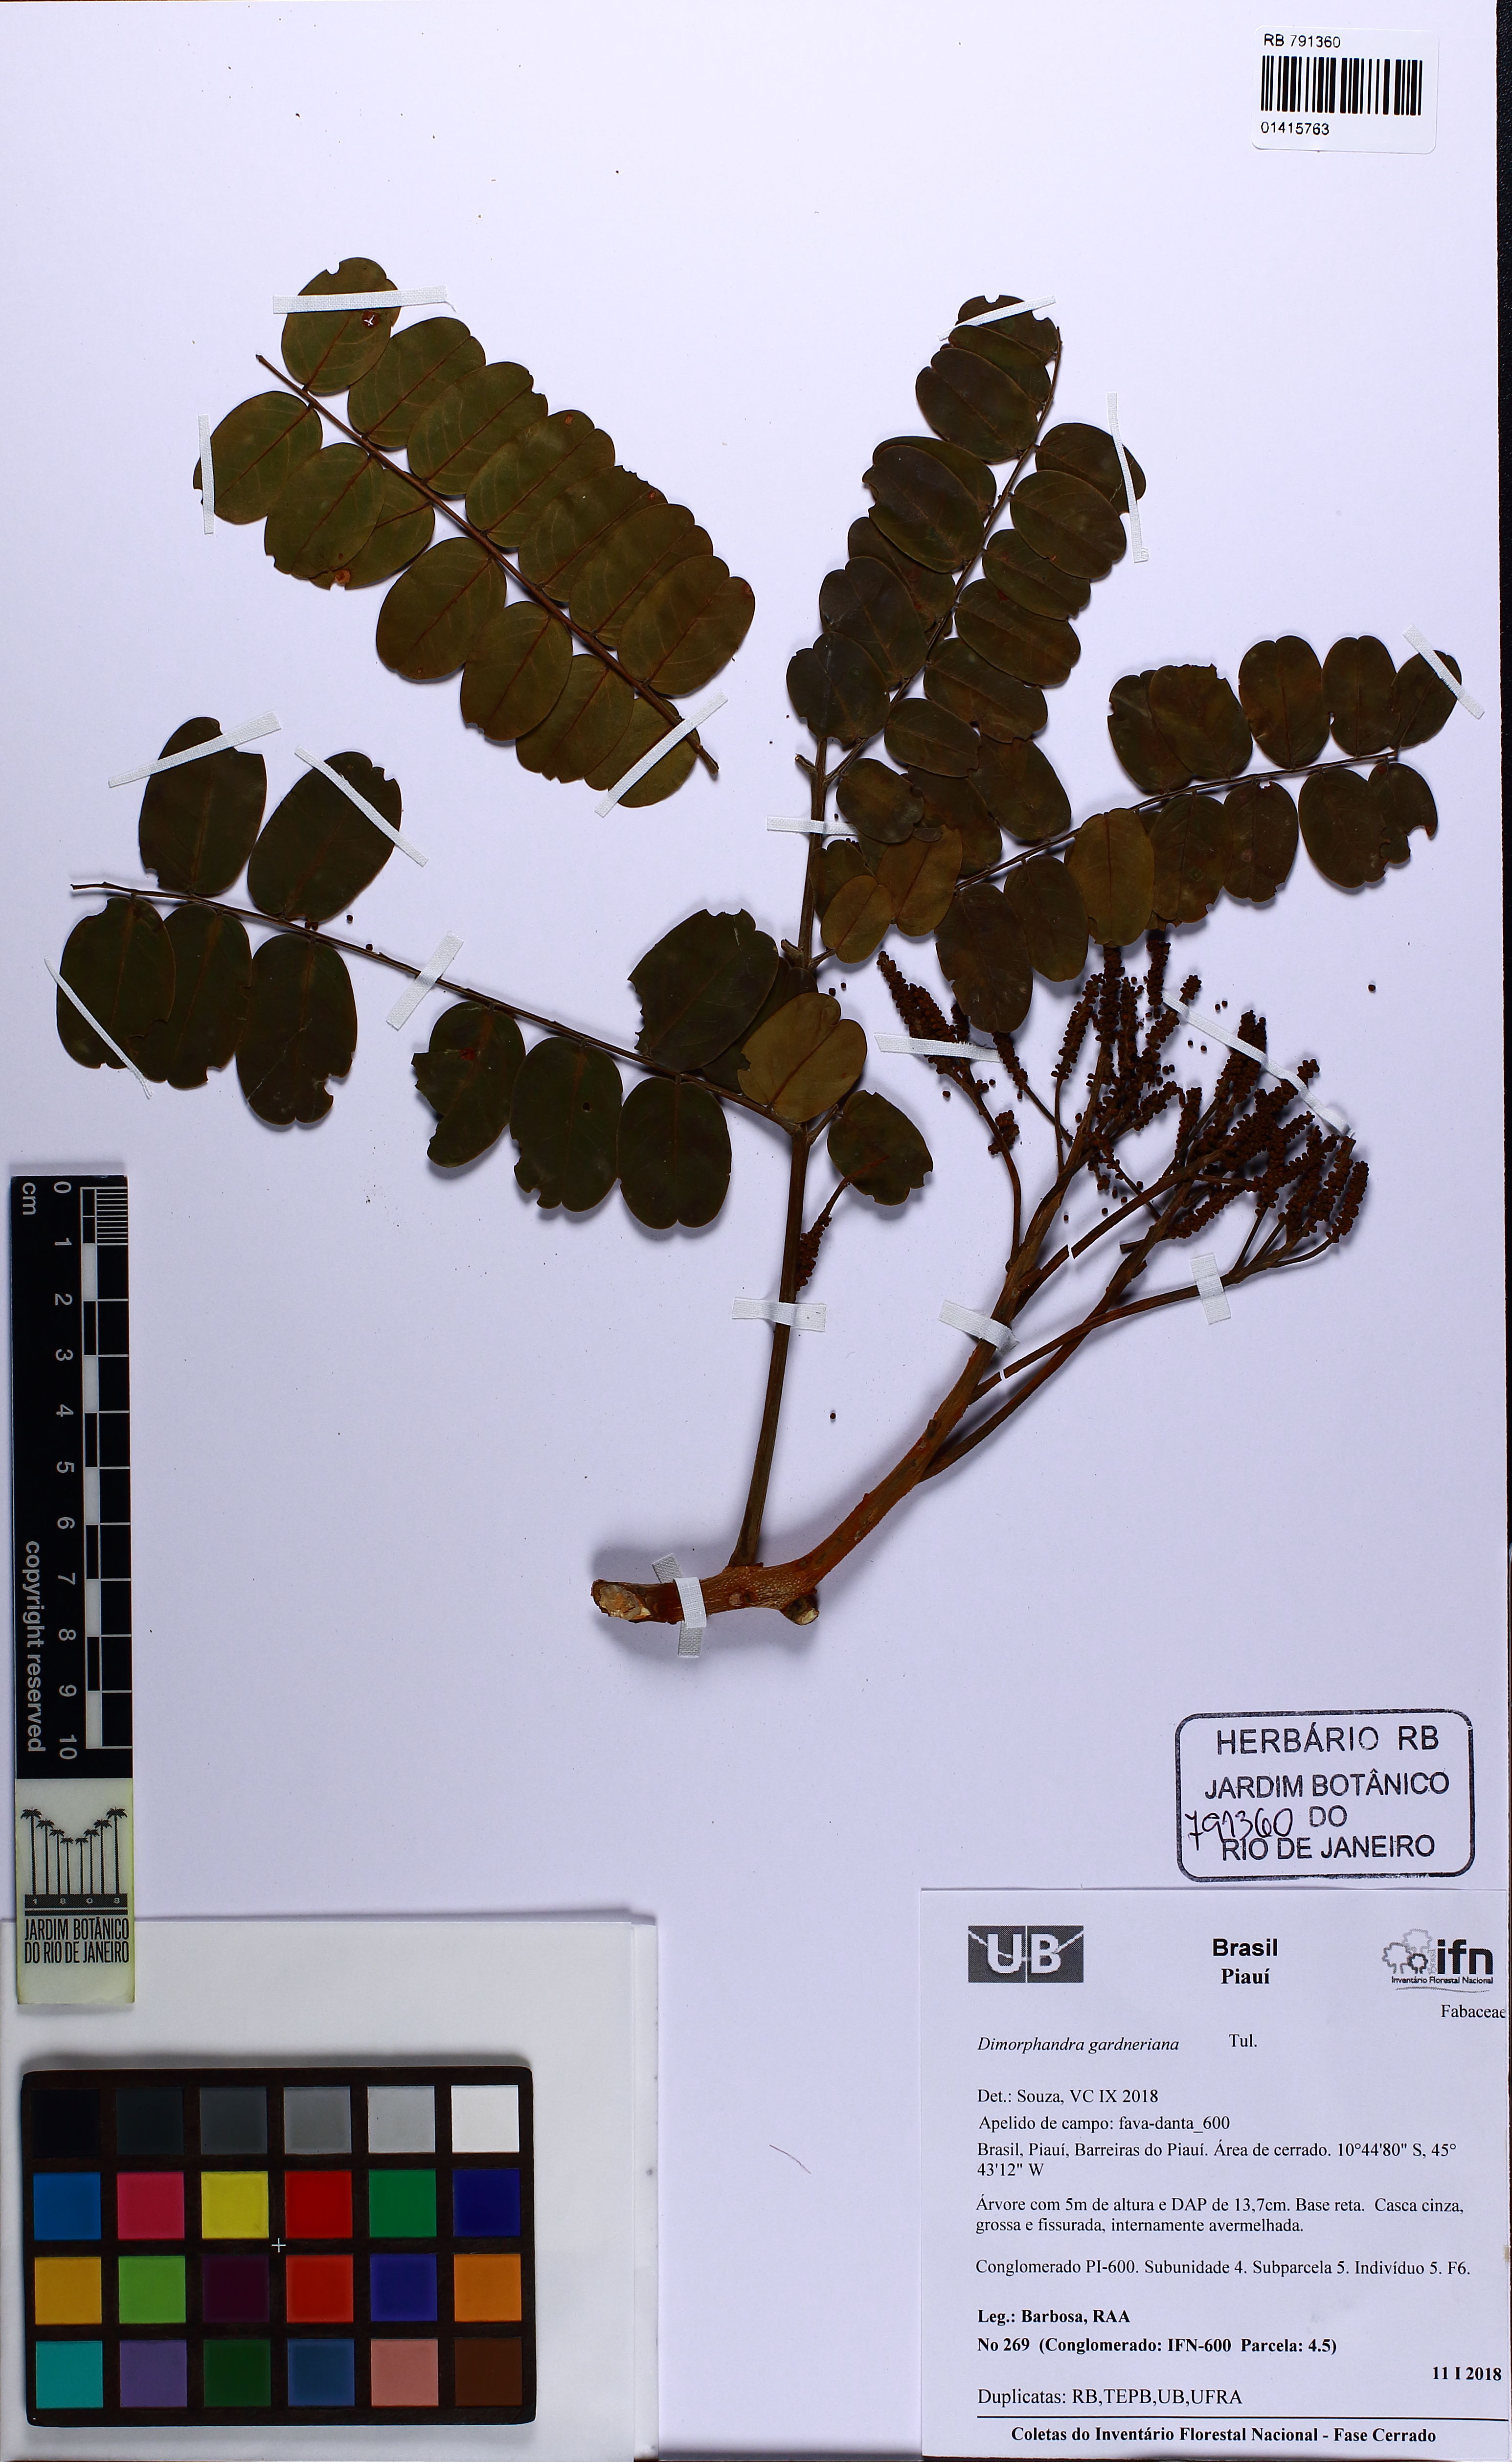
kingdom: Plantae
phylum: Tracheophyta
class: Magnoliopsida
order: Fabales
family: Fabaceae
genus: Dimorphandra
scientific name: Dimorphandra gardneriana
